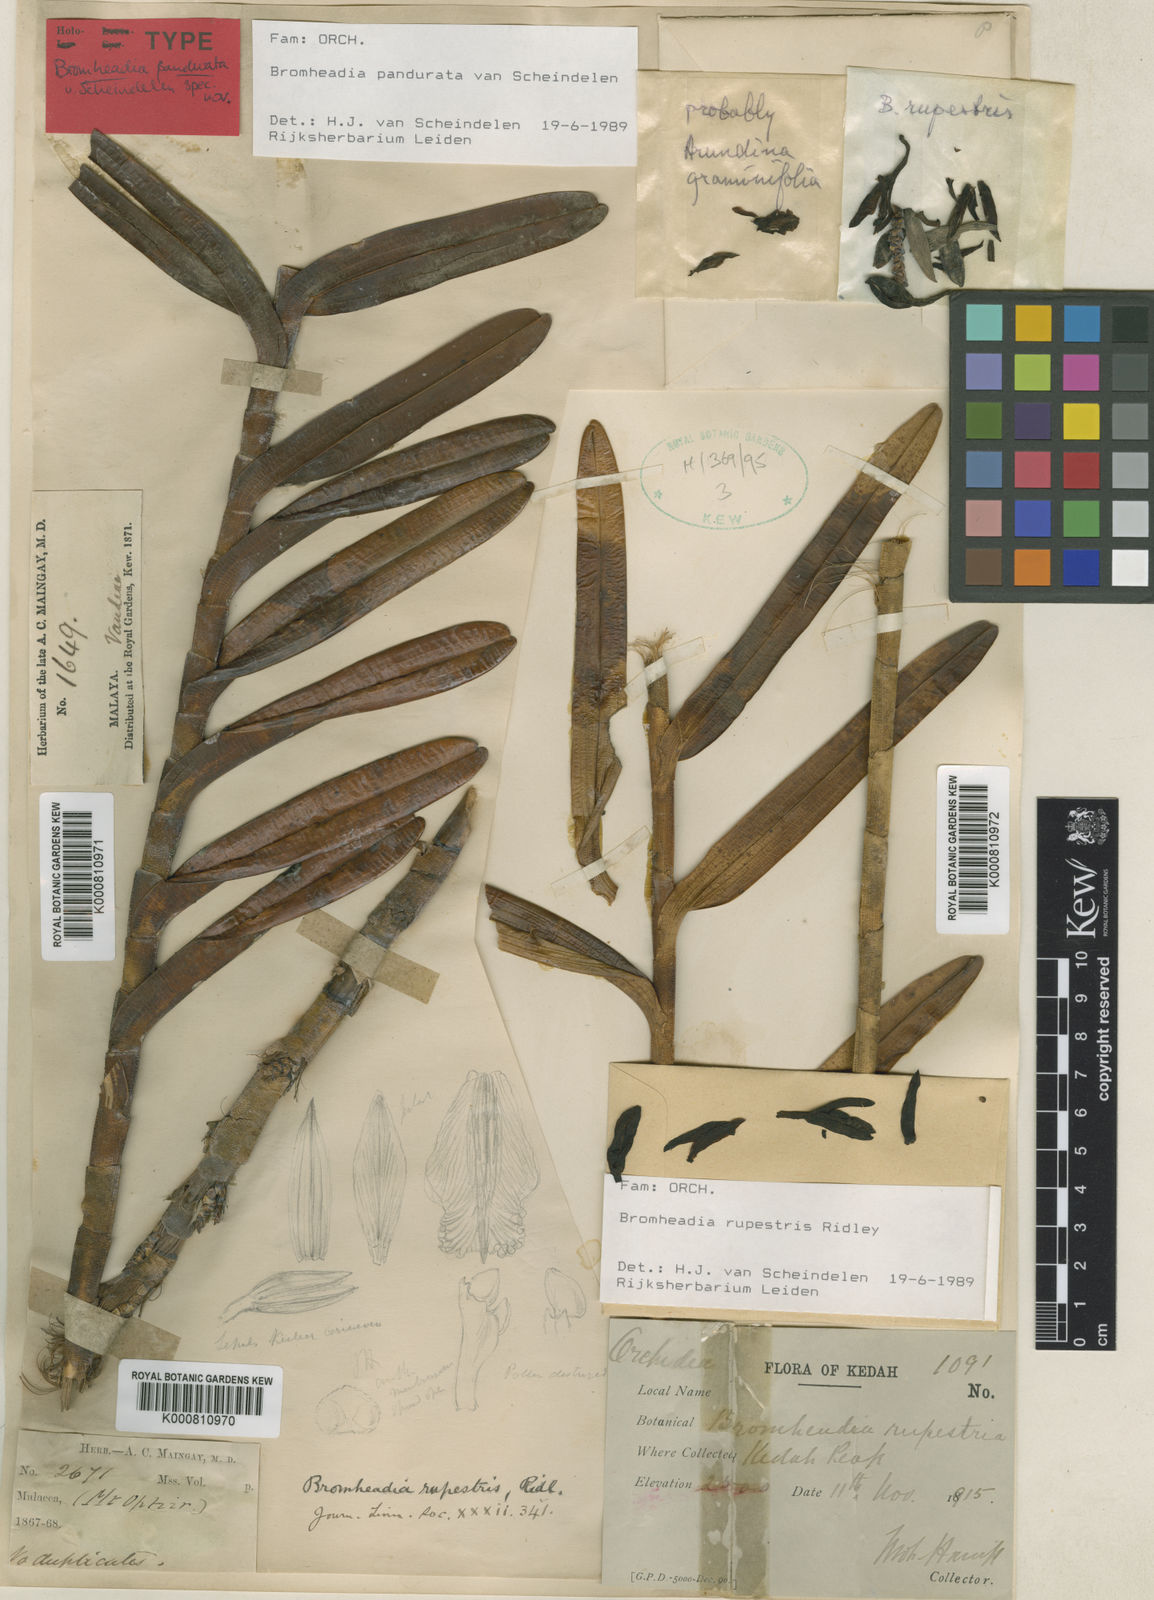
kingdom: Plantae
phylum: Tracheophyta
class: Liliopsida
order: Asparagales
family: Orchidaceae
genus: Bromheadia
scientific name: Bromheadia
